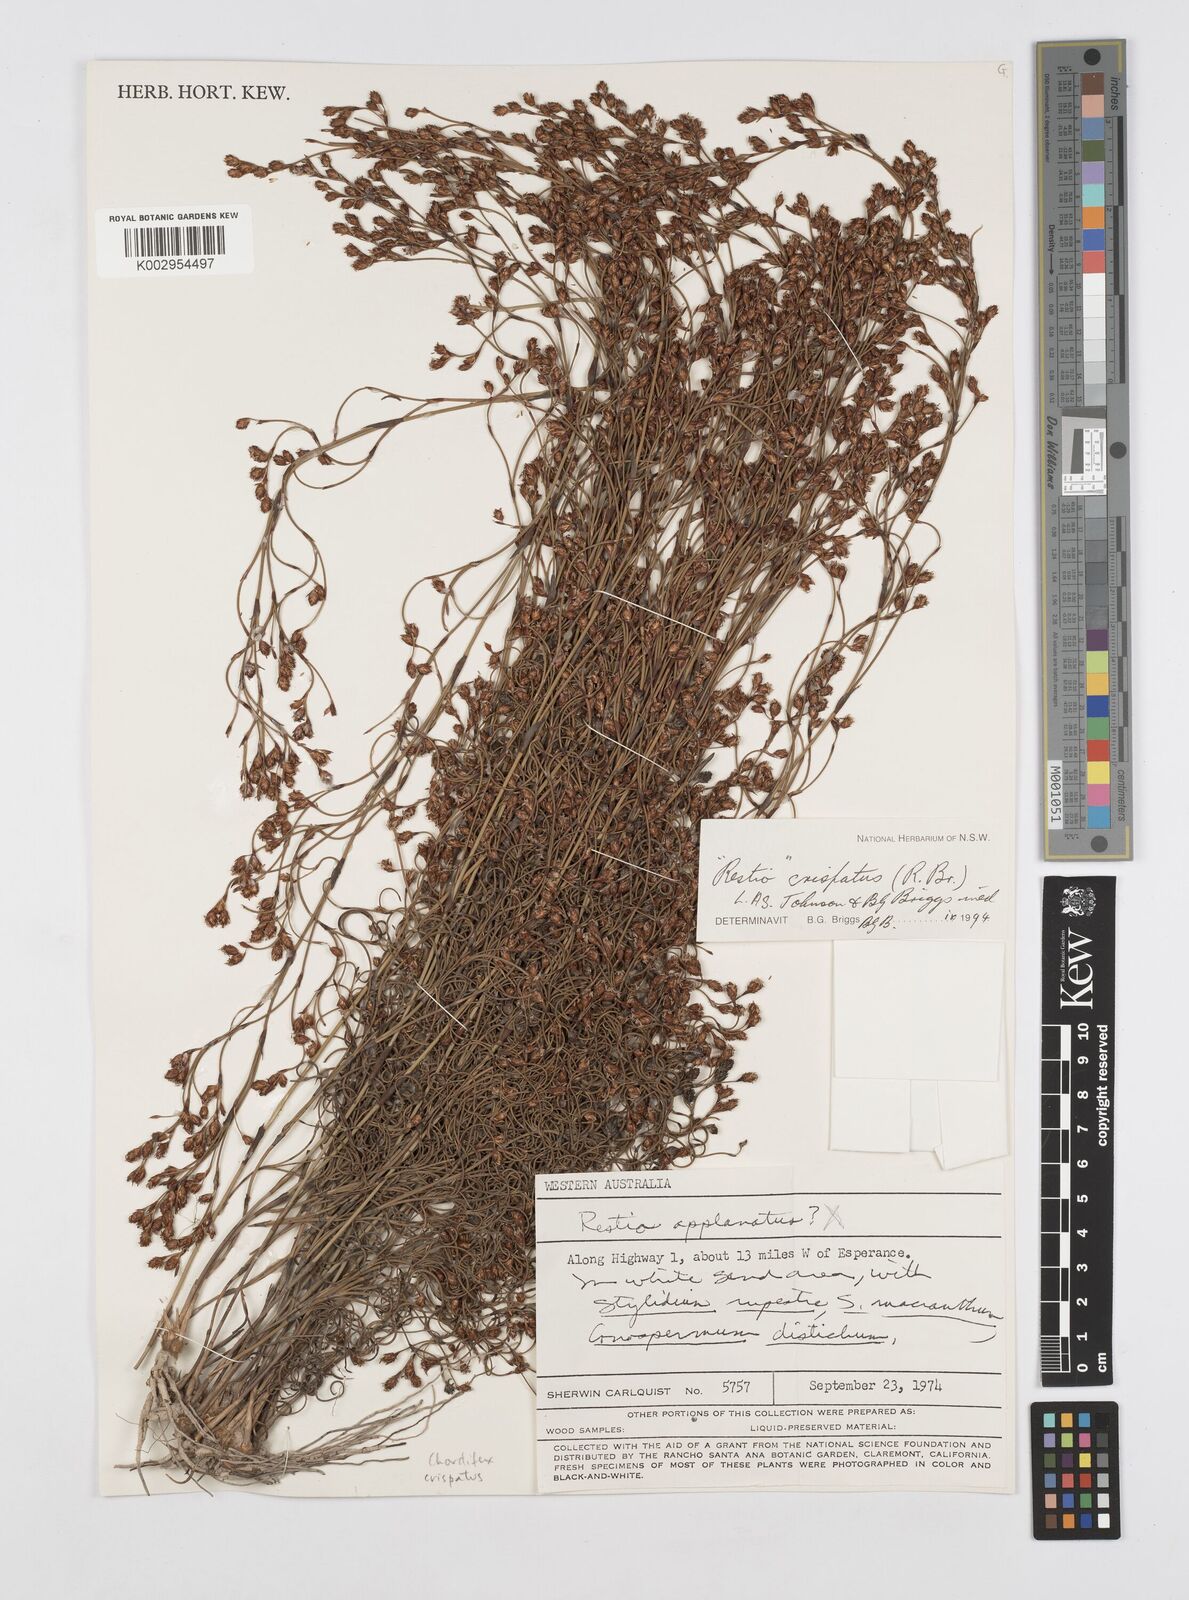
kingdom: Plantae
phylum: Tracheophyta
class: Liliopsida
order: Poales
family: Restionaceae
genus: Chordifex
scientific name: Chordifex crispatus
